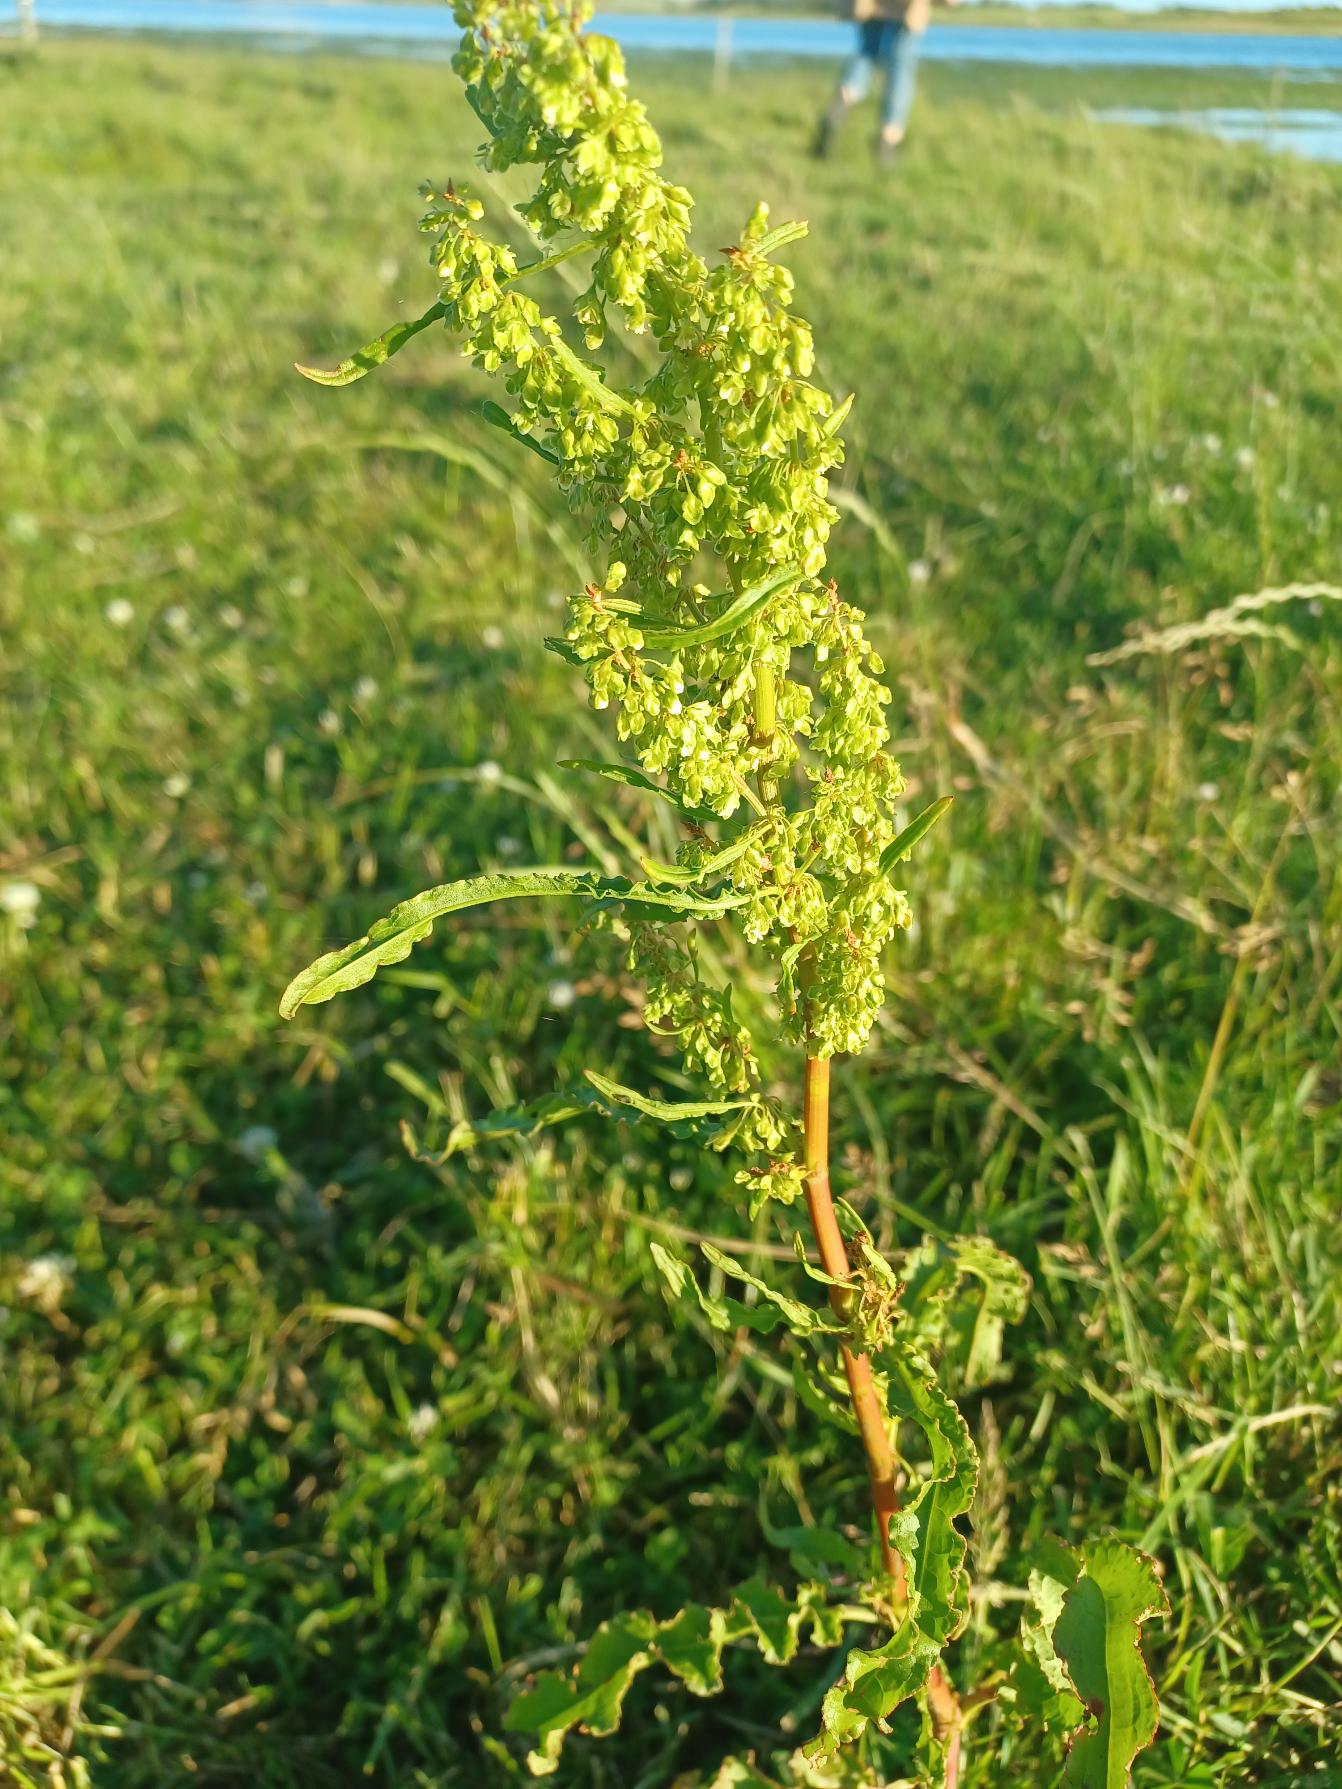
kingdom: Plantae
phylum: Tracheophyta
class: Magnoliopsida
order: Caryophyllales
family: Polygonaceae
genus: Rumex
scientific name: Rumex crispus
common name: Kruset skræppe
